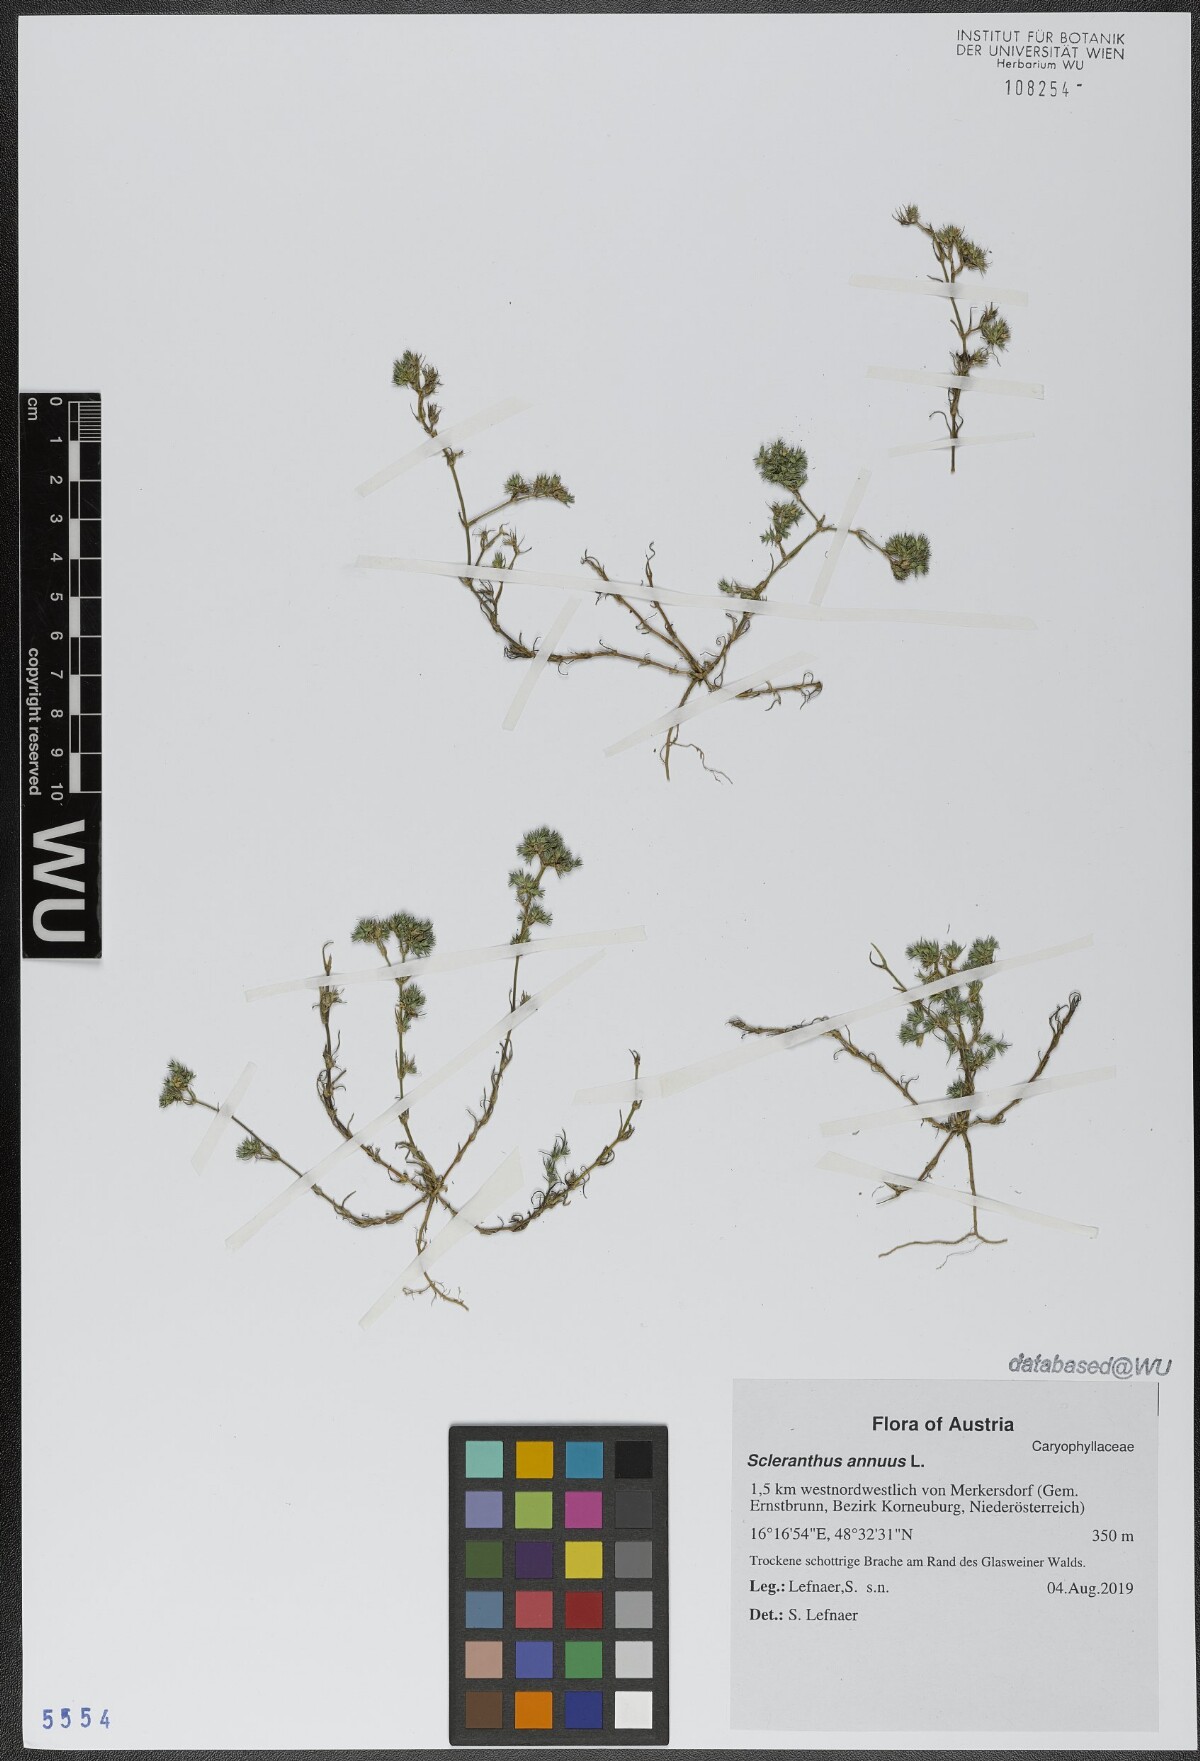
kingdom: Plantae
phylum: Tracheophyta
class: Magnoliopsida
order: Caryophyllales
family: Caryophyllaceae
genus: Scleranthus
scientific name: Scleranthus annuus
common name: Annual knawel
